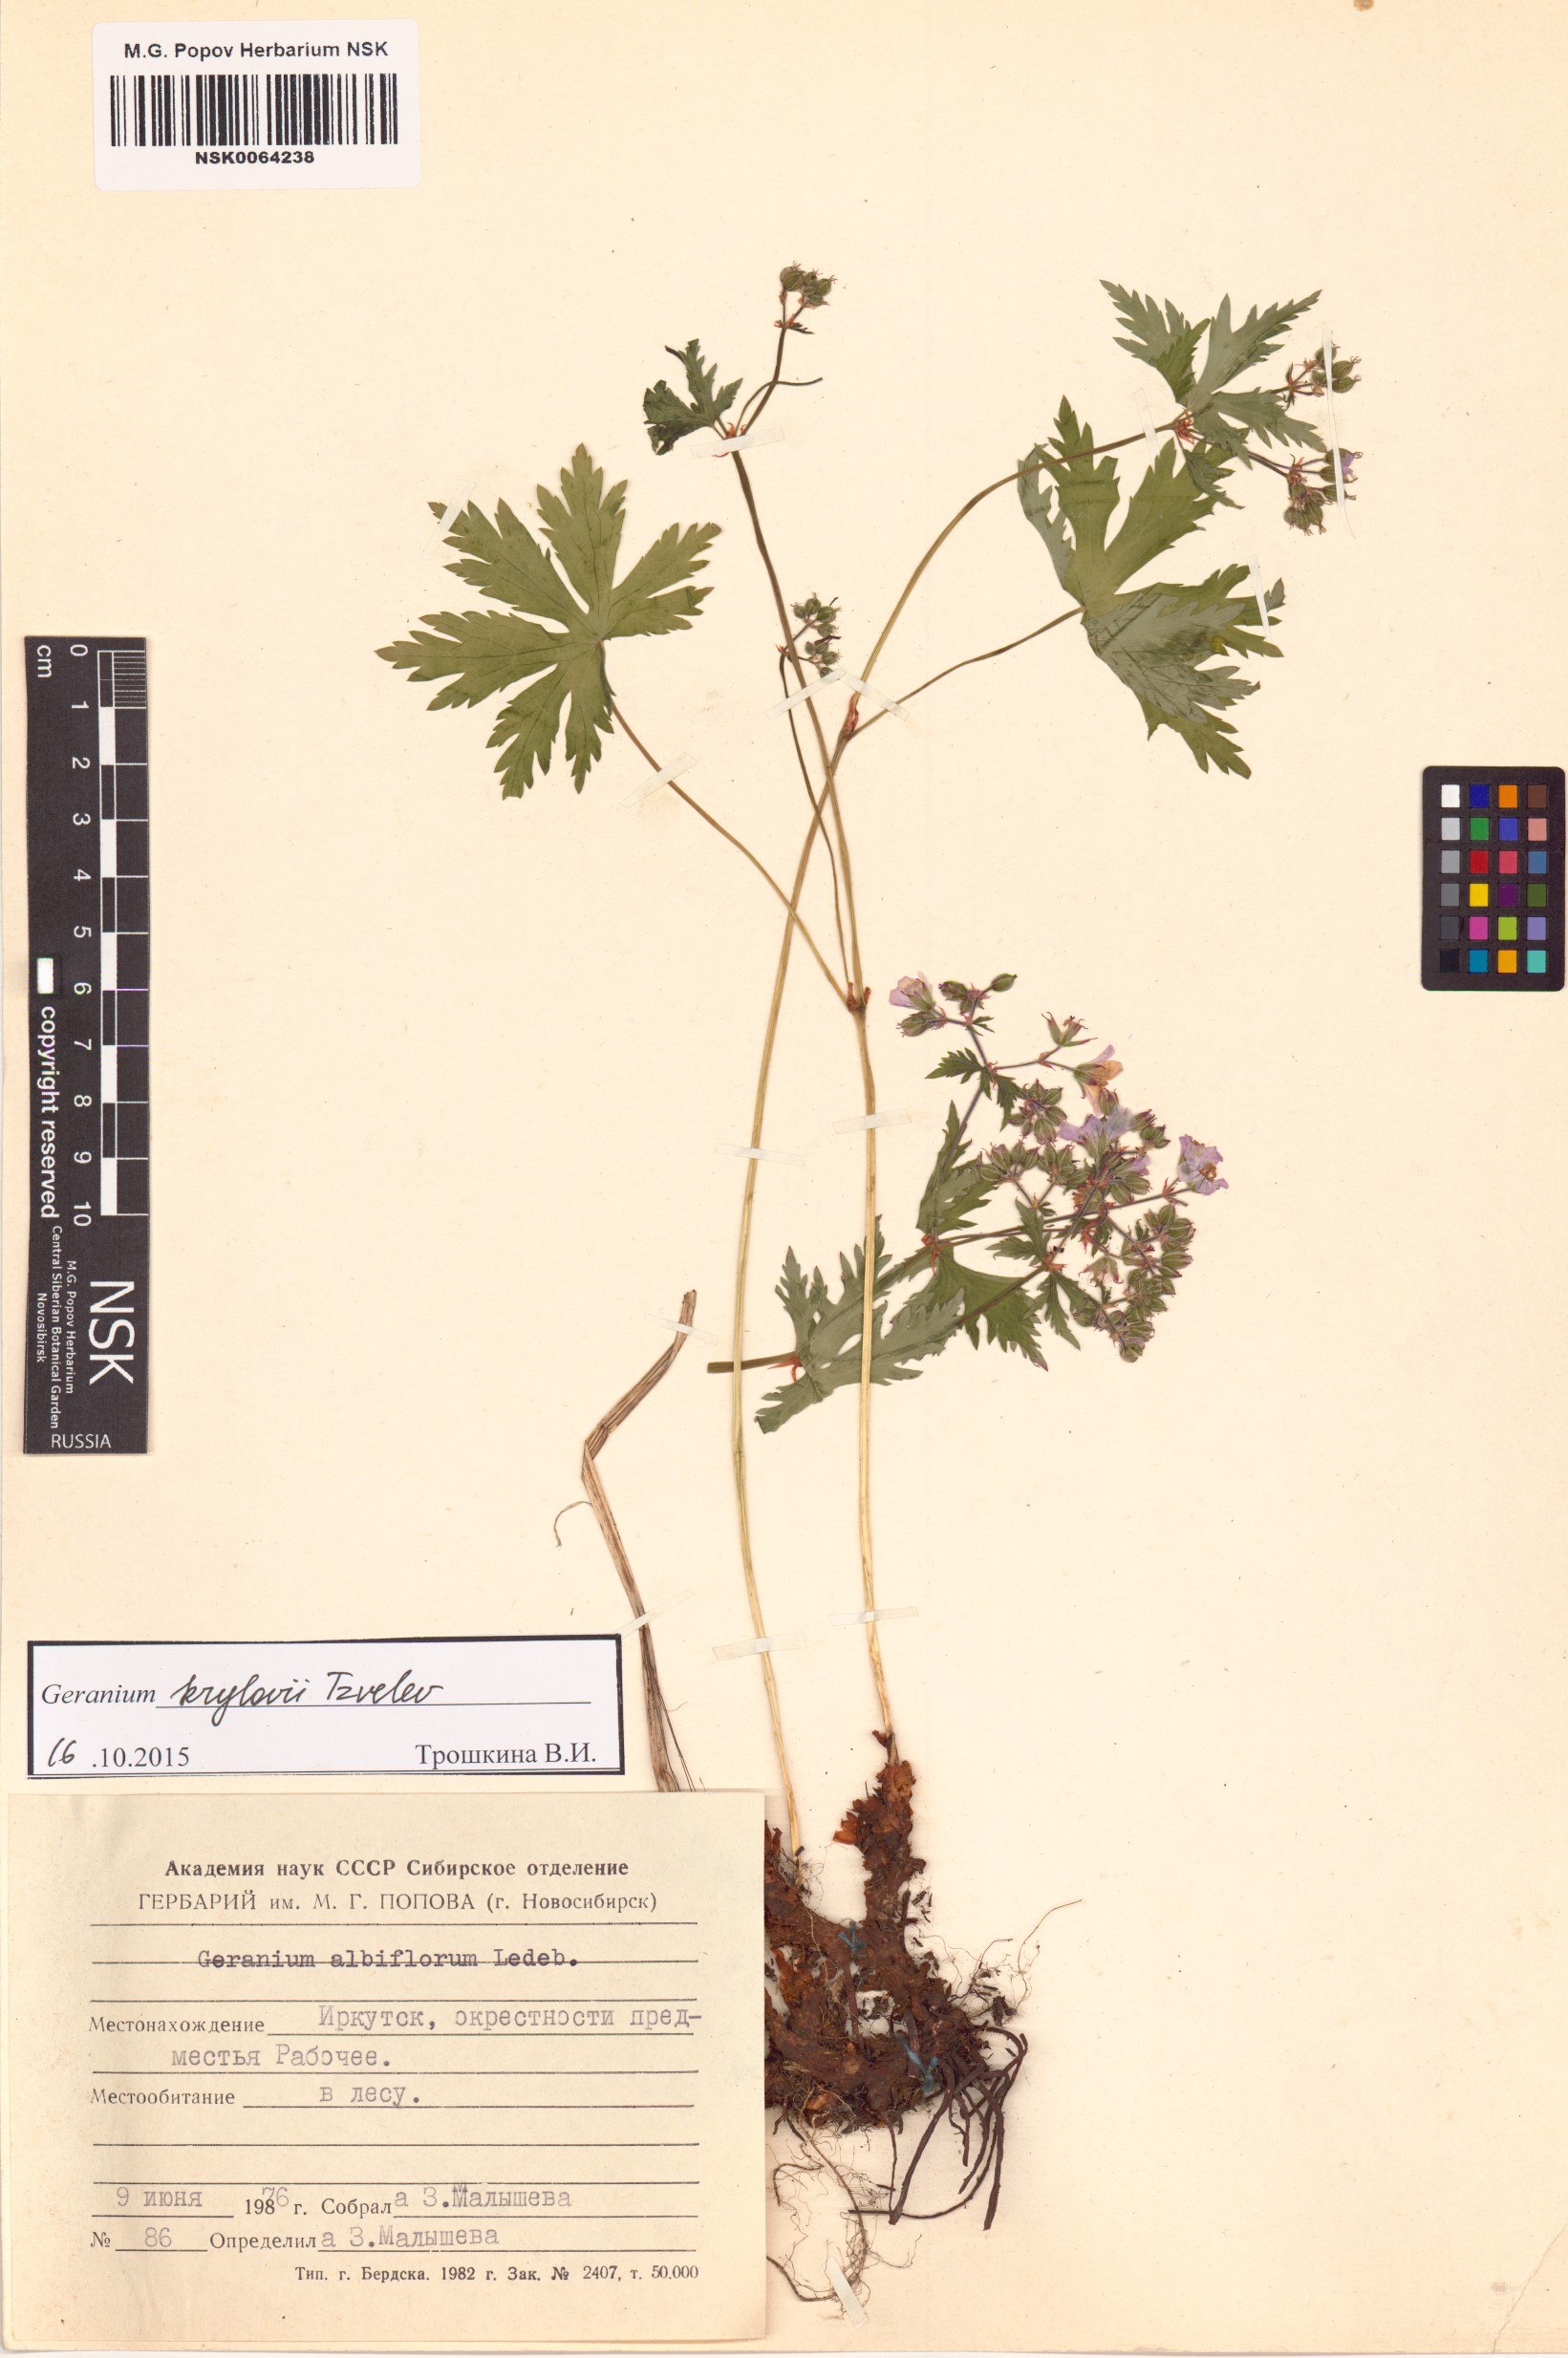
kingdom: Plantae
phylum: Tracheophyta
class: Magnoliopsida
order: Geraniales
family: Geraniaceae
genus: Geranium
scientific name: Geranium sylvaticum
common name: Wood crane's-bill
